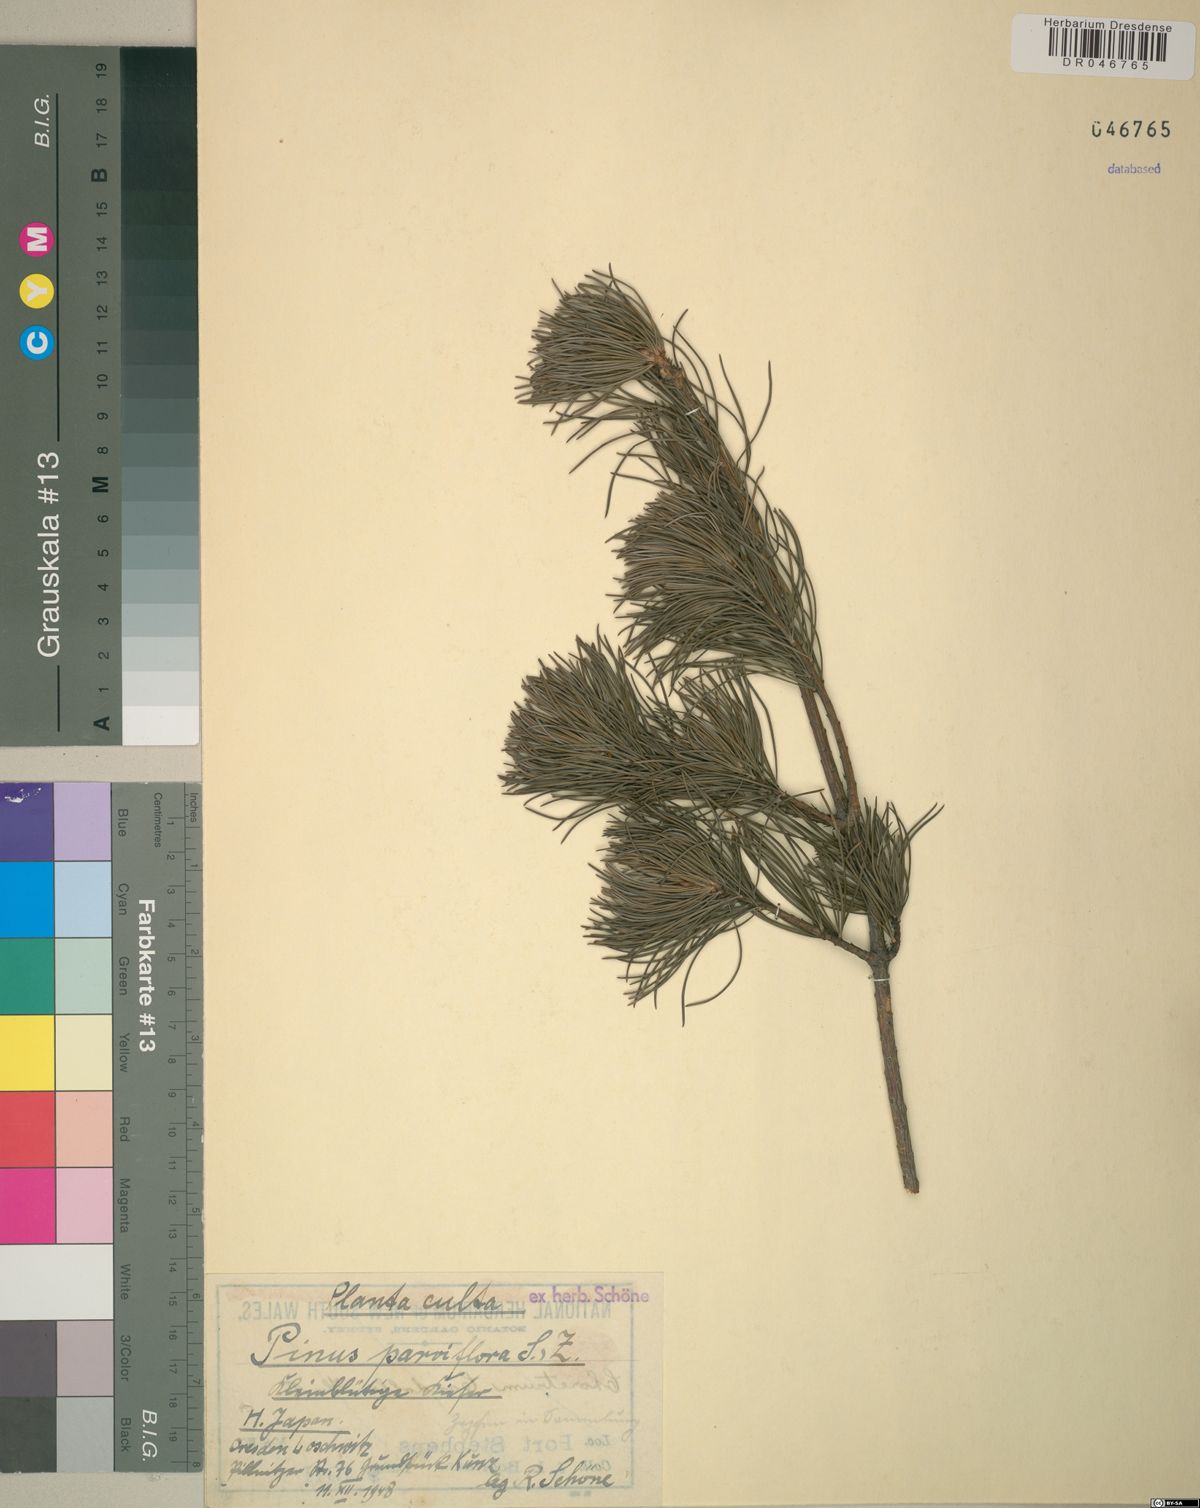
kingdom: Plantae
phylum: Tracheophyta
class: Pinopsida
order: Pinales
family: Pinaceae
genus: Pinus
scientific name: Pinus parviflora
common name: Japanese white pine
